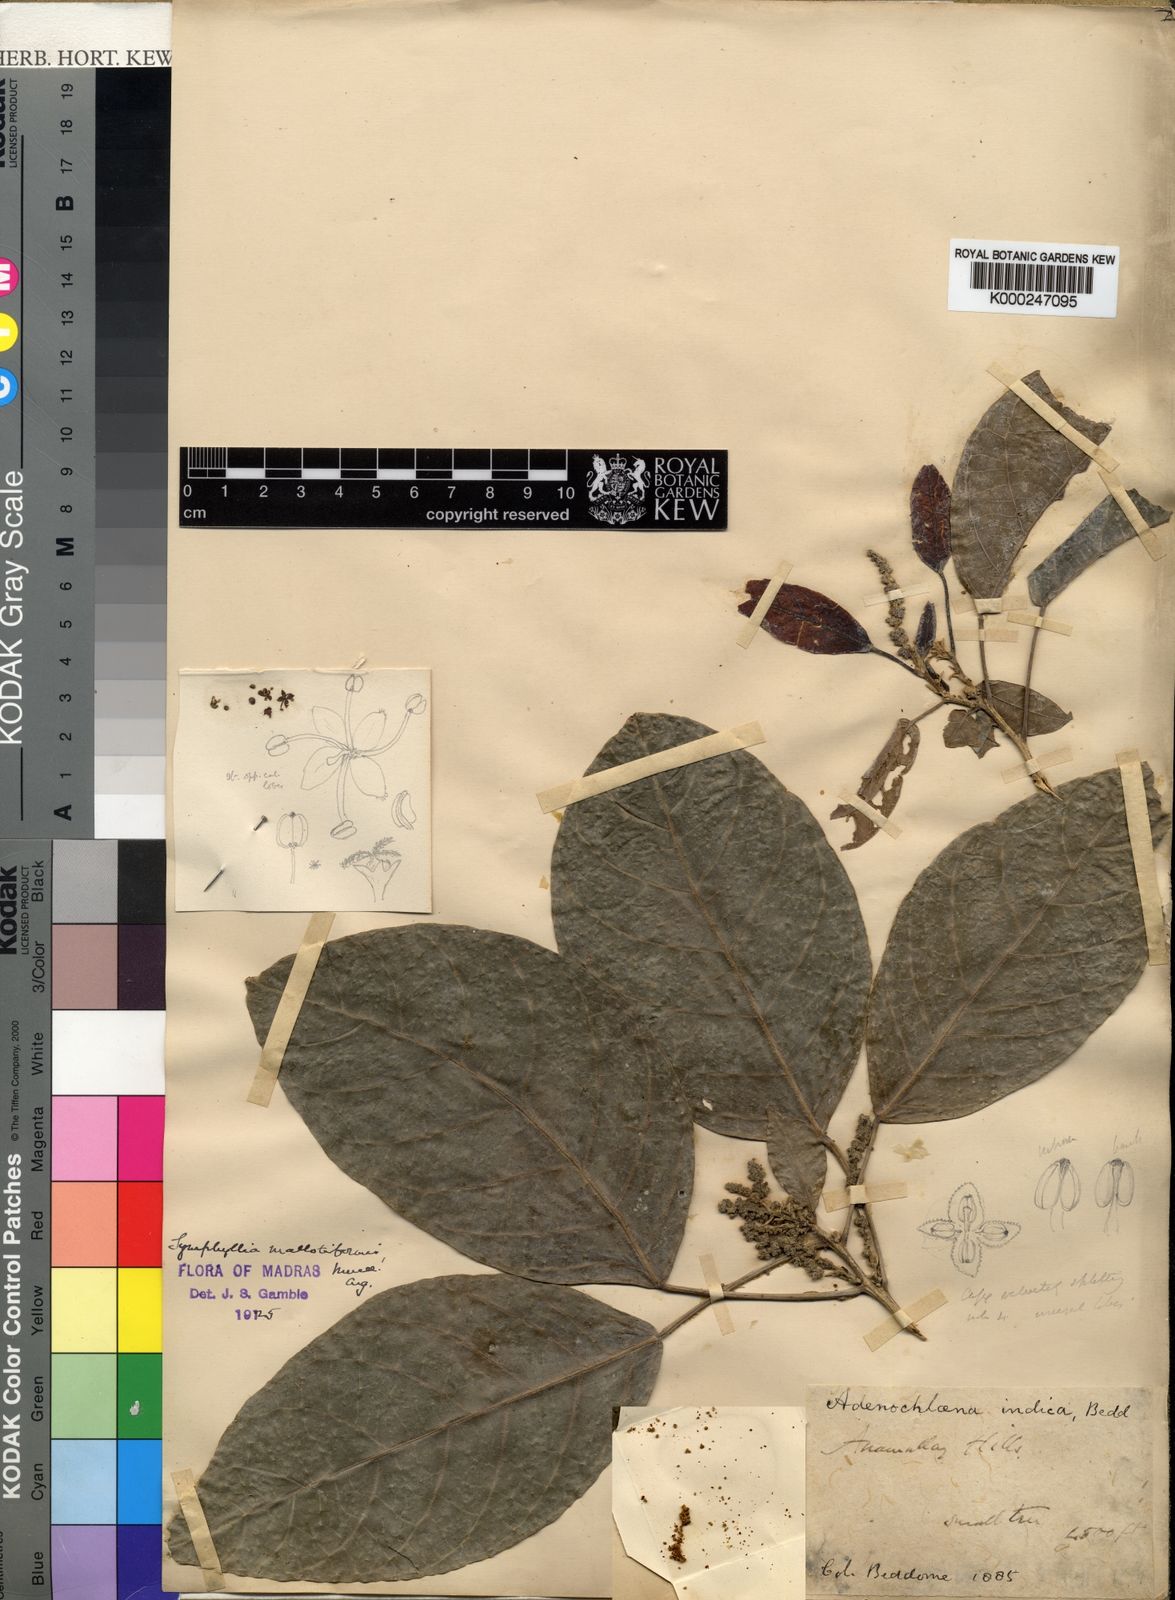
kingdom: Plantae
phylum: Tracheophyta
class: Magnoliopsida
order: Malpighiales
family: Euphorbiaceae
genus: Epiprinus
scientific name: Epiprinus
